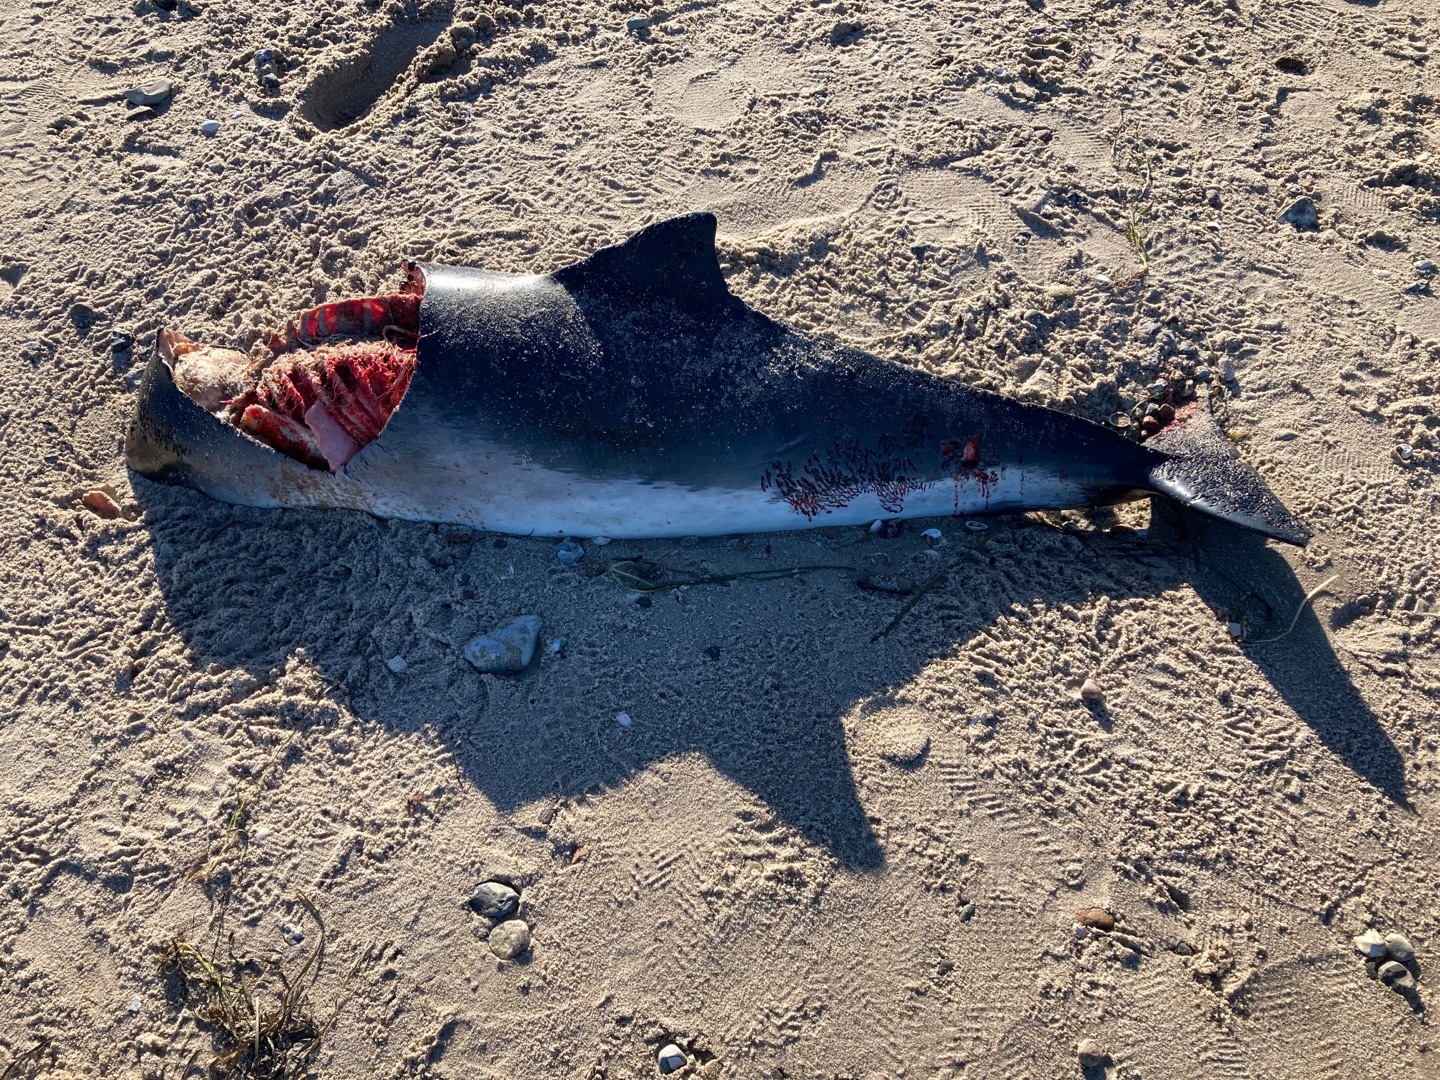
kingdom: Animalia
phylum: Chordata
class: Mammalia
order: Cetacea
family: Phocoenidae
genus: Phocoena
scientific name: Phocoena phocoena
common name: Marsvin
